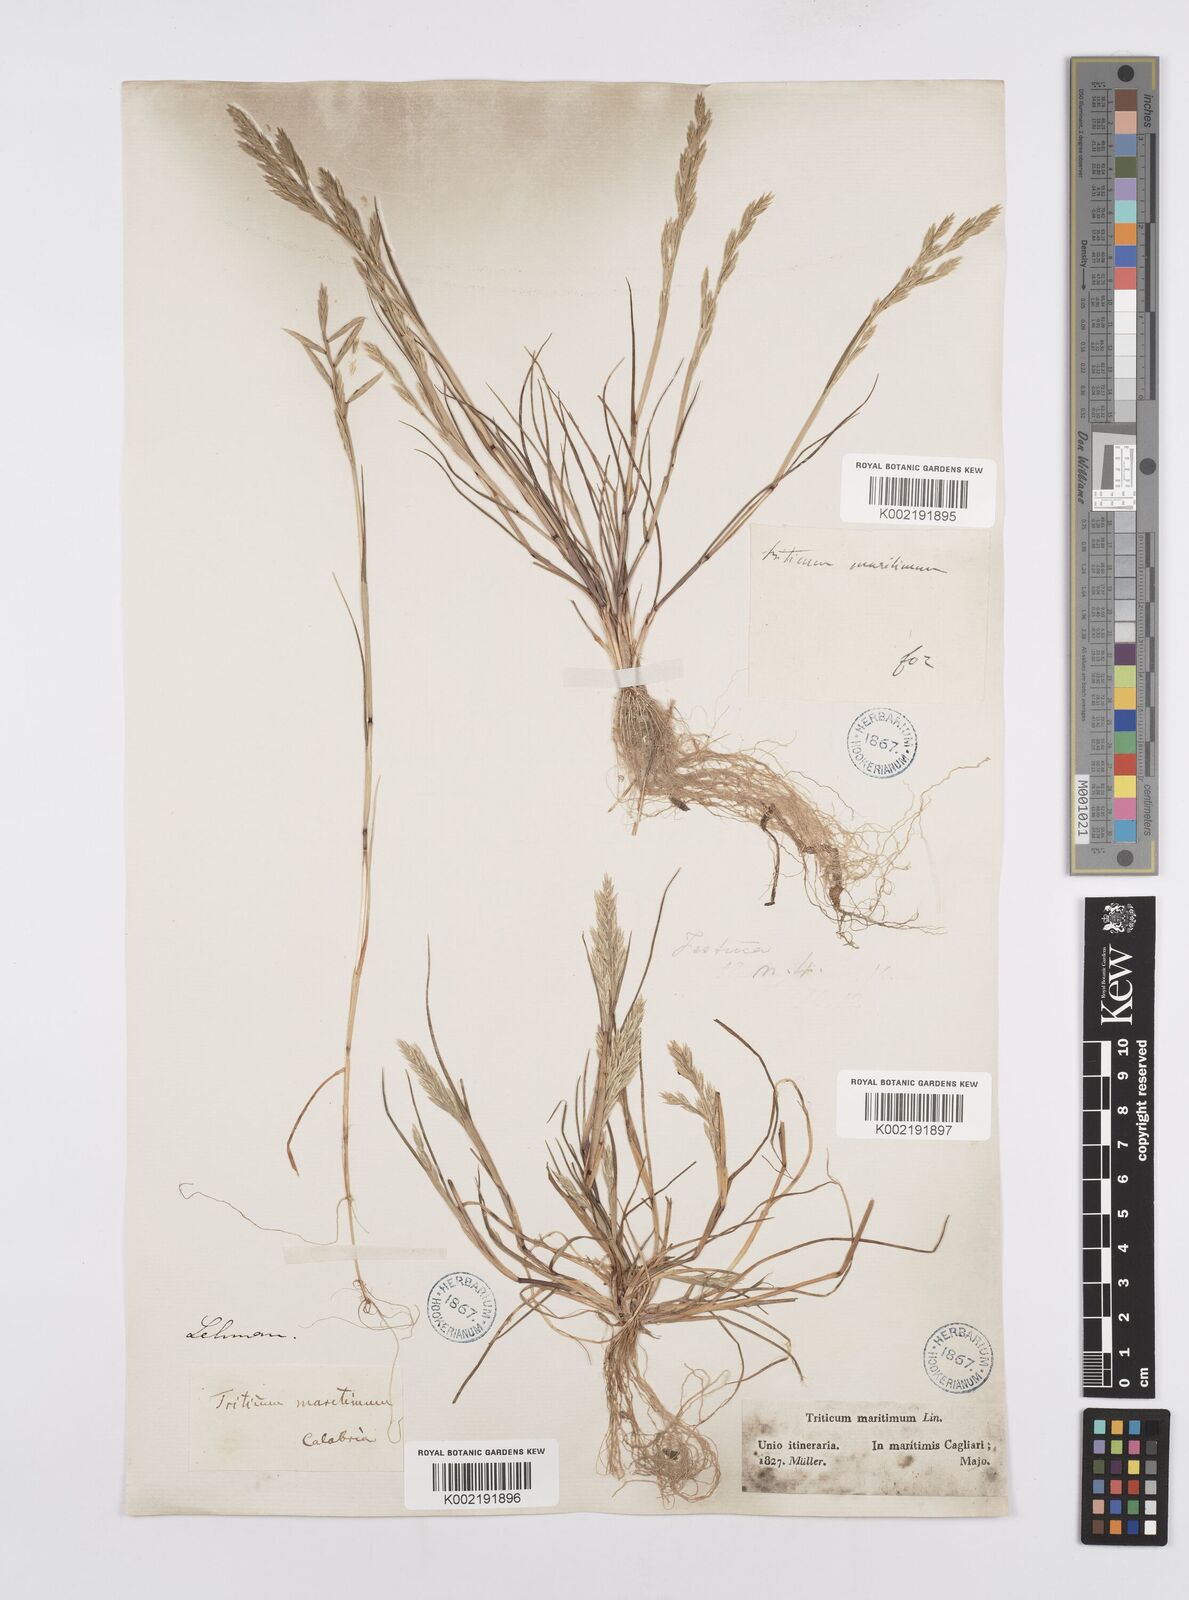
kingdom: Plantae
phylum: Tracheophyta
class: Liliopsida
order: Poales
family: Poaceae
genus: Cutandia
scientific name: Cutandia maritima
